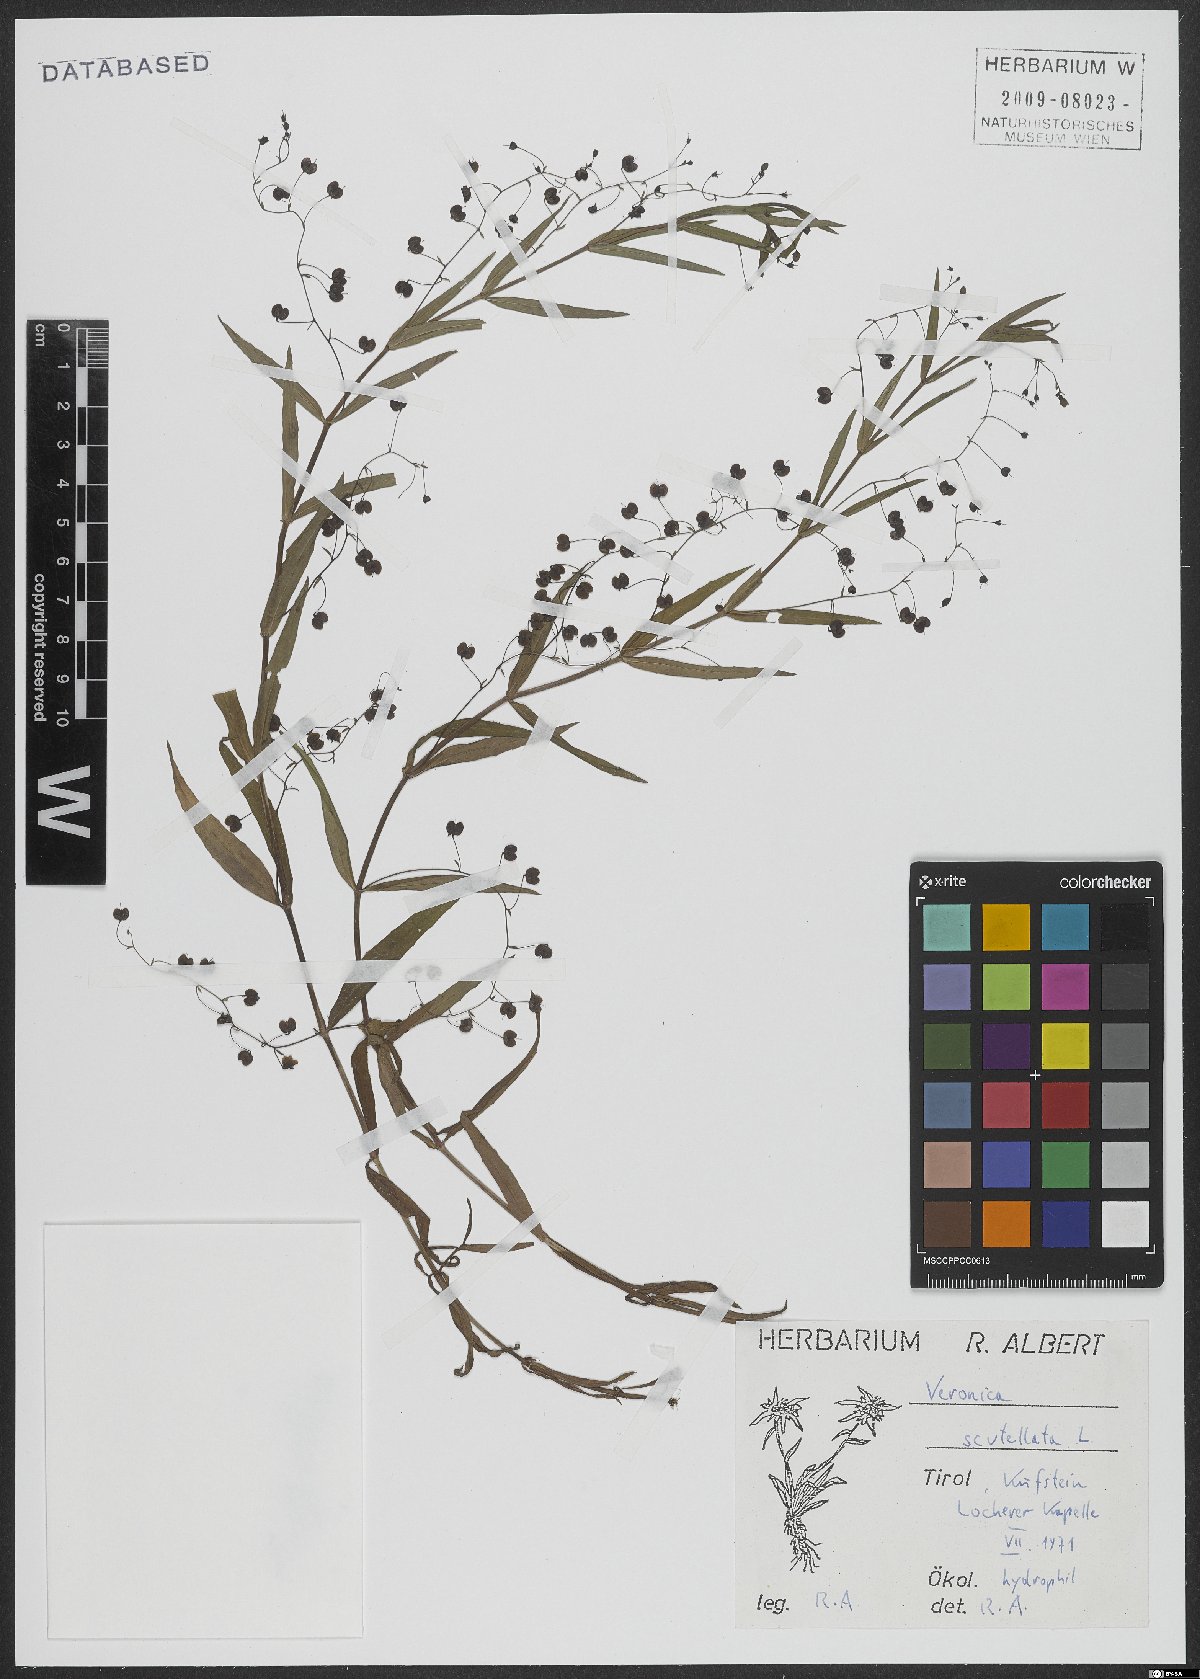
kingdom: Plantae
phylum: Tracheophyta
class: Magnoliopsida
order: Lamiales
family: Plantaginaceae
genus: Veronica
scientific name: Veronica scutellata
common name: Marsh speedwell
